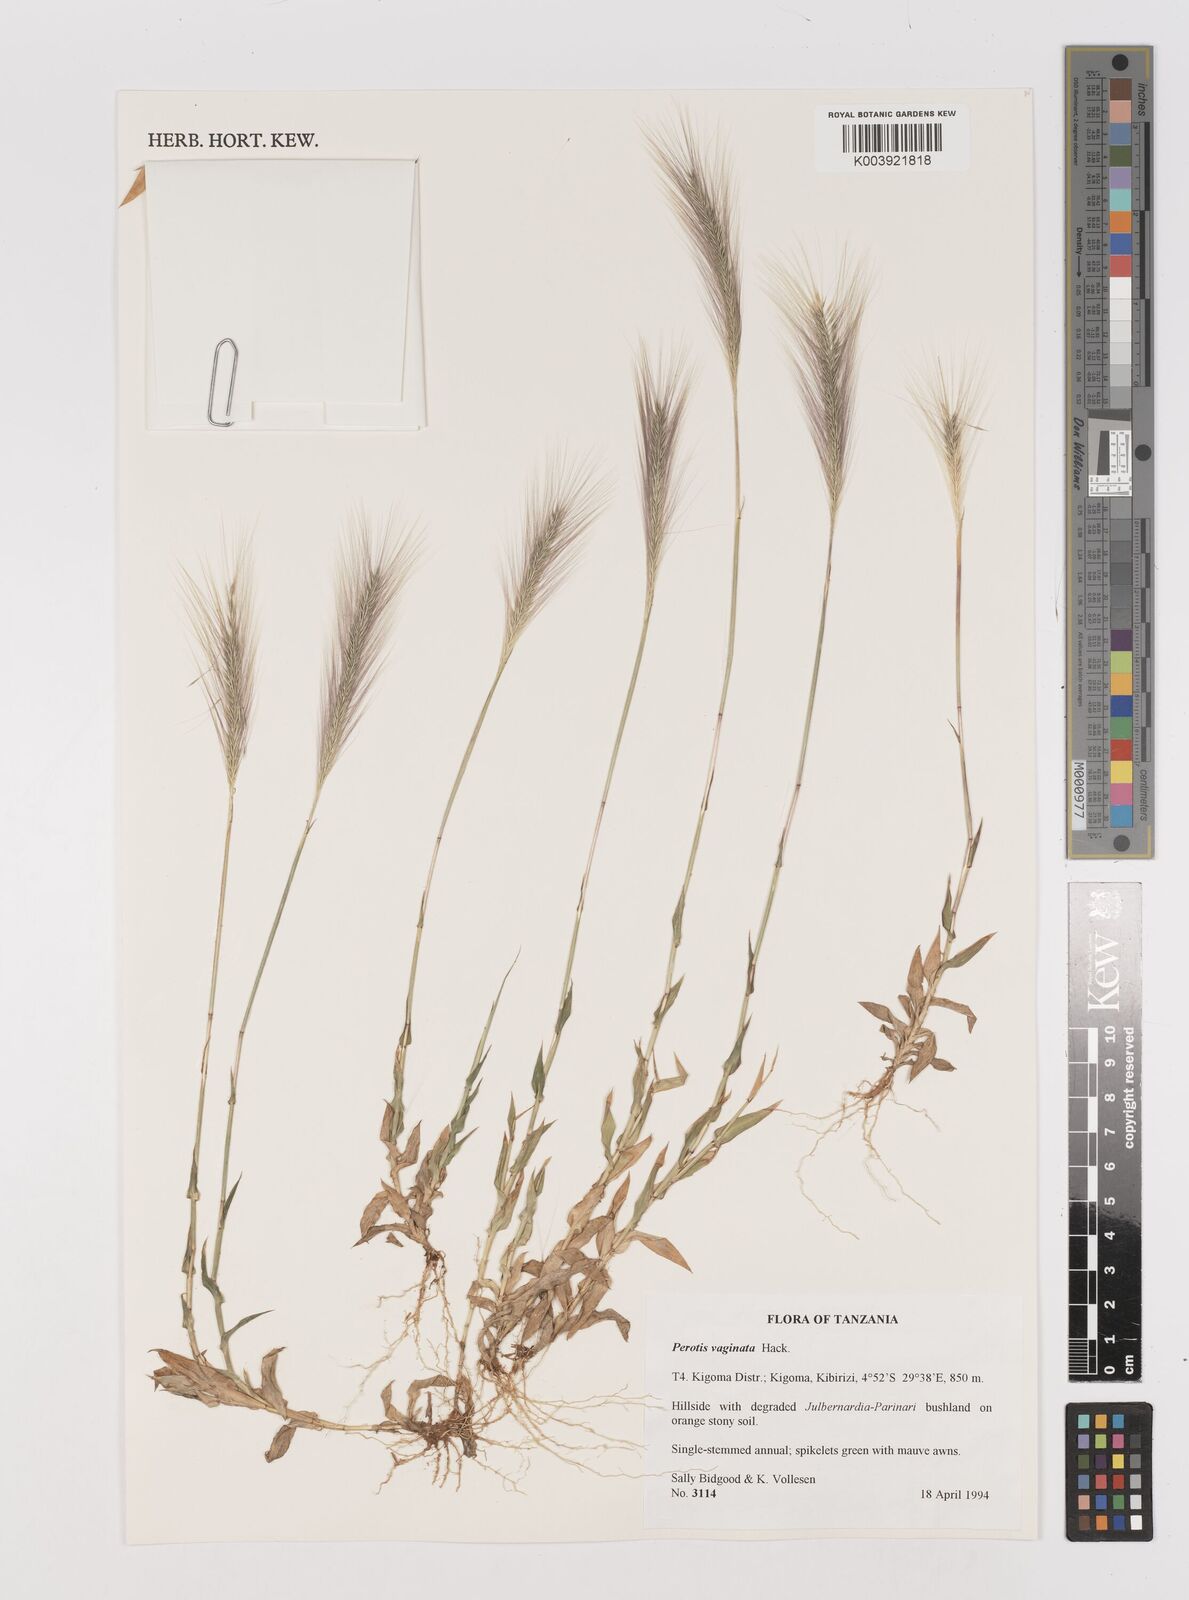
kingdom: Plantae
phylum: Tracheophyta
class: Liliopsida
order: Poales
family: Poaceae
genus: Perotis
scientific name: Perotis vaginata
